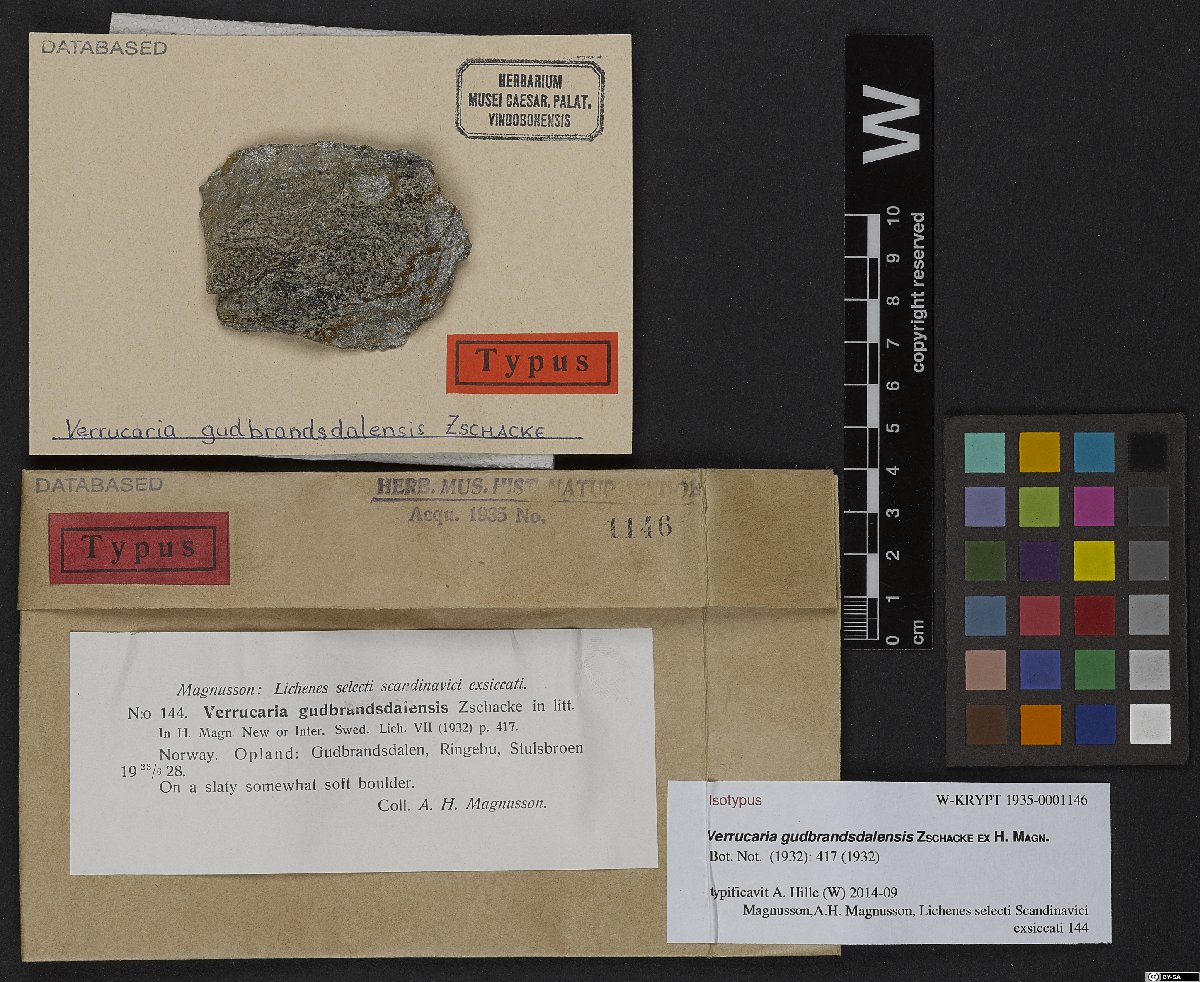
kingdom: Fungi
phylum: Ascomycota
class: Eurotiomycetes
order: Verrucariales
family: Verrucariaceae
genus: Verrucaria
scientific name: Verrucaria gudbrandsdalensis
